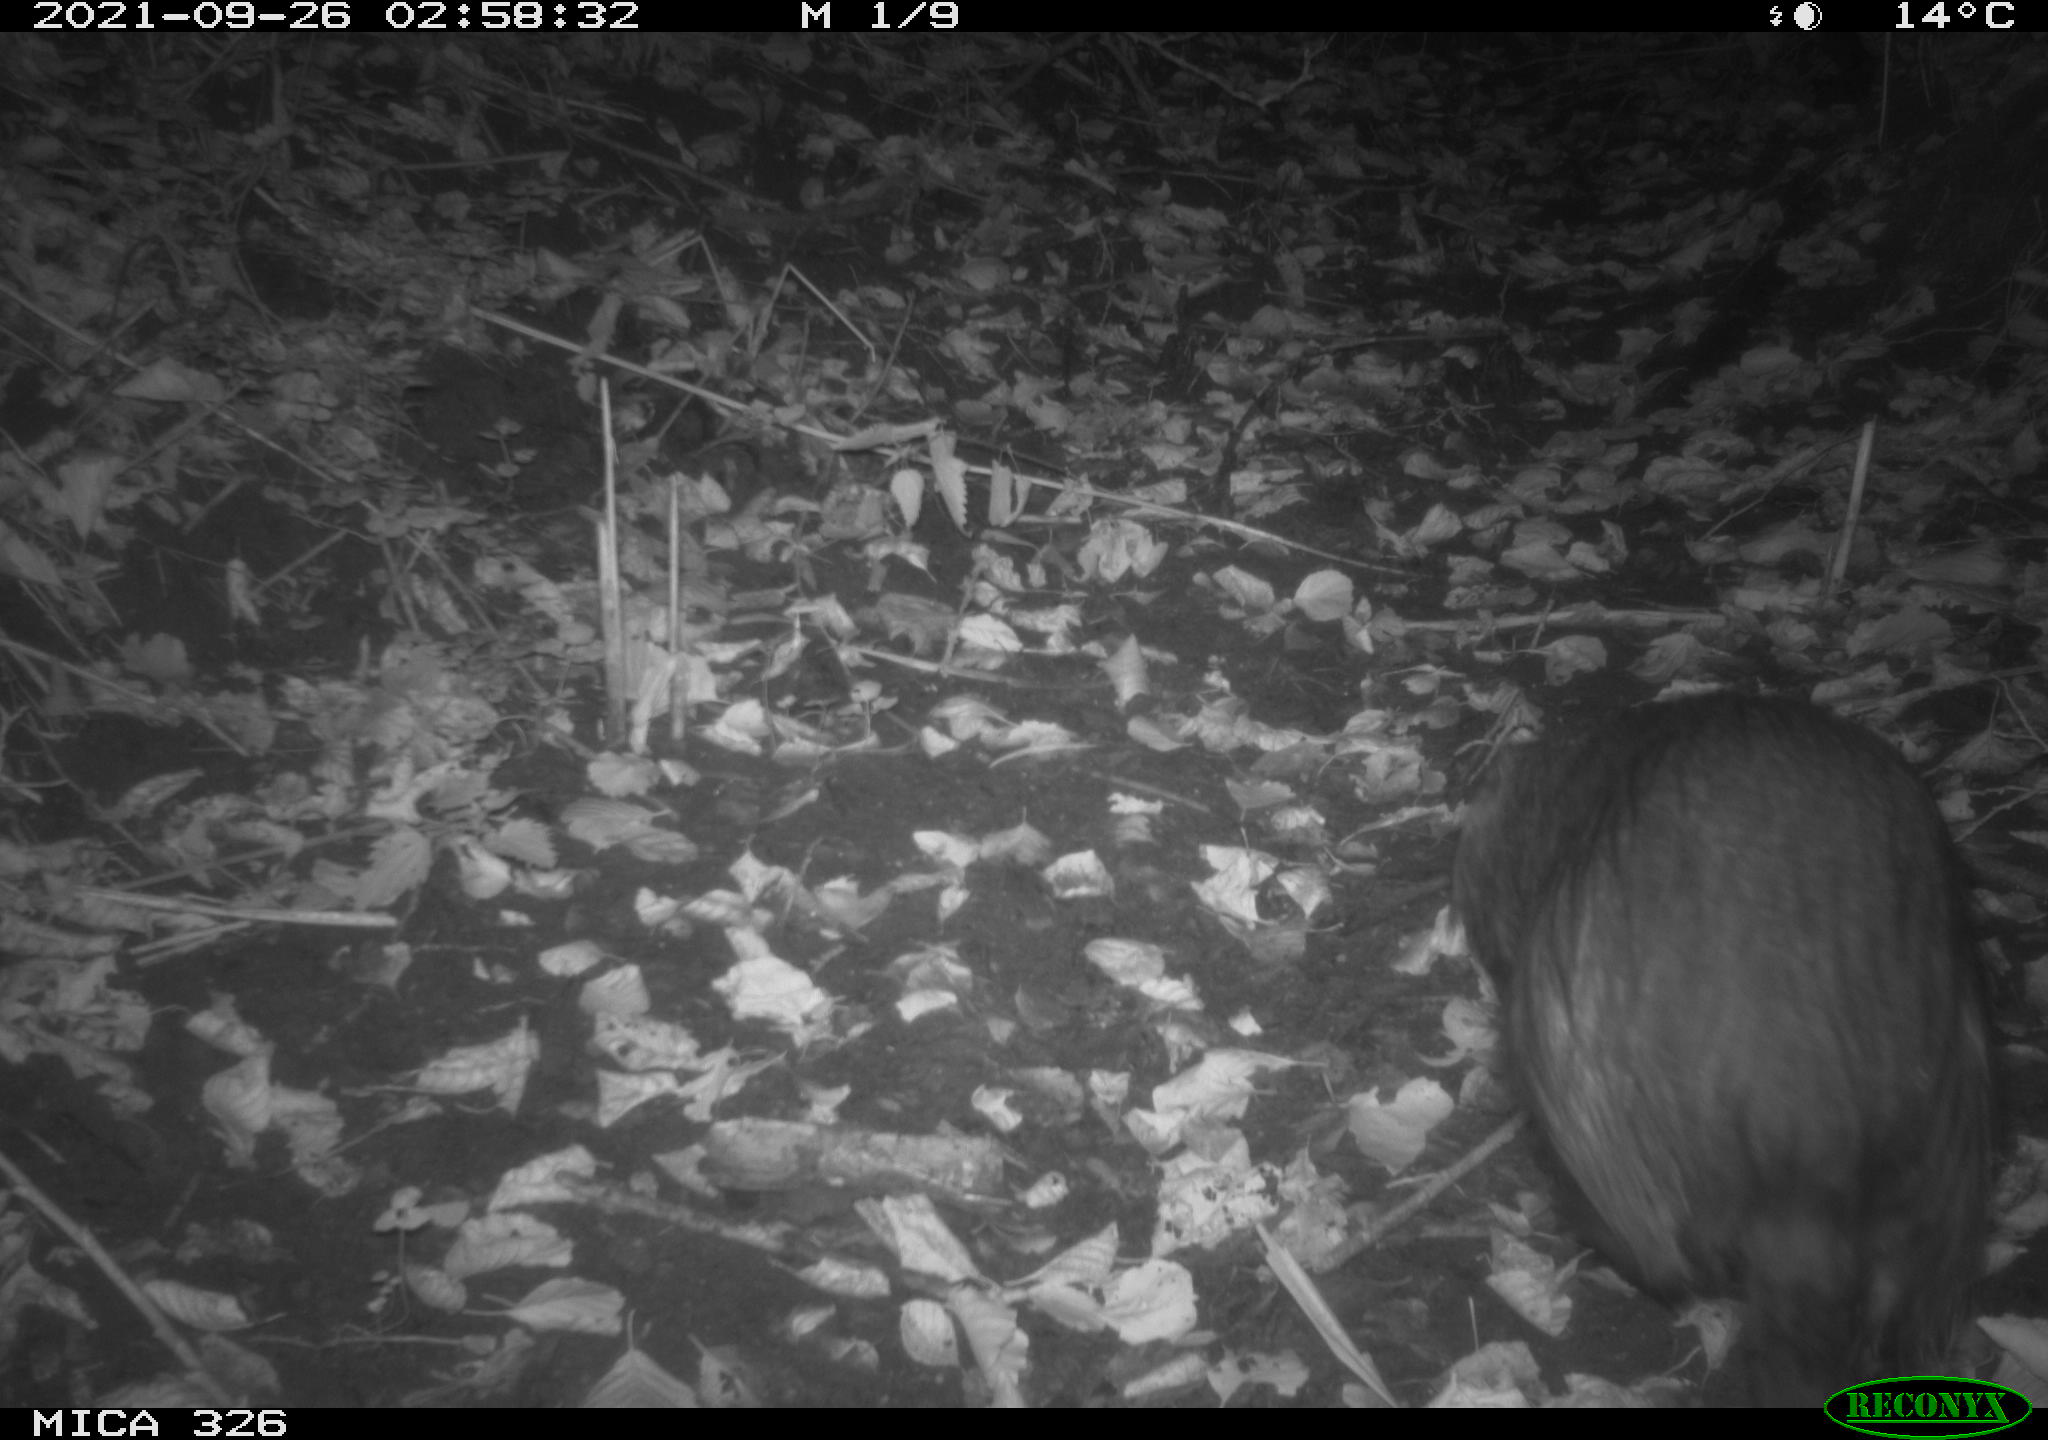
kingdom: Animalia
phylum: Chordata
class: Mammalia
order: Rodentia
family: Myocastoridae
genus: Myocastor
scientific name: Myocastor coypus
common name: Coypu
